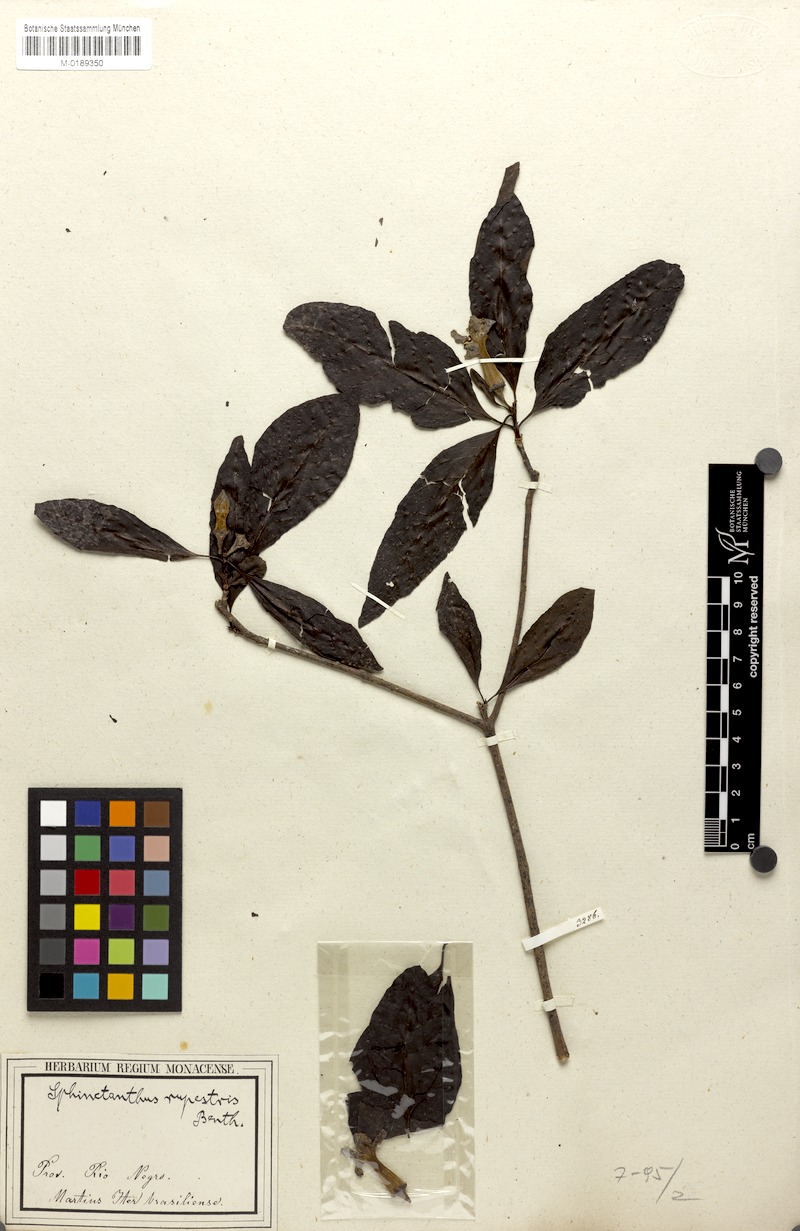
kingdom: Plantae
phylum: Tracheophyta
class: Magnoliopsida
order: Gentianales
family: Rubiaceae
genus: Sphinctanthus
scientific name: Sphinctanthus striiflorus
